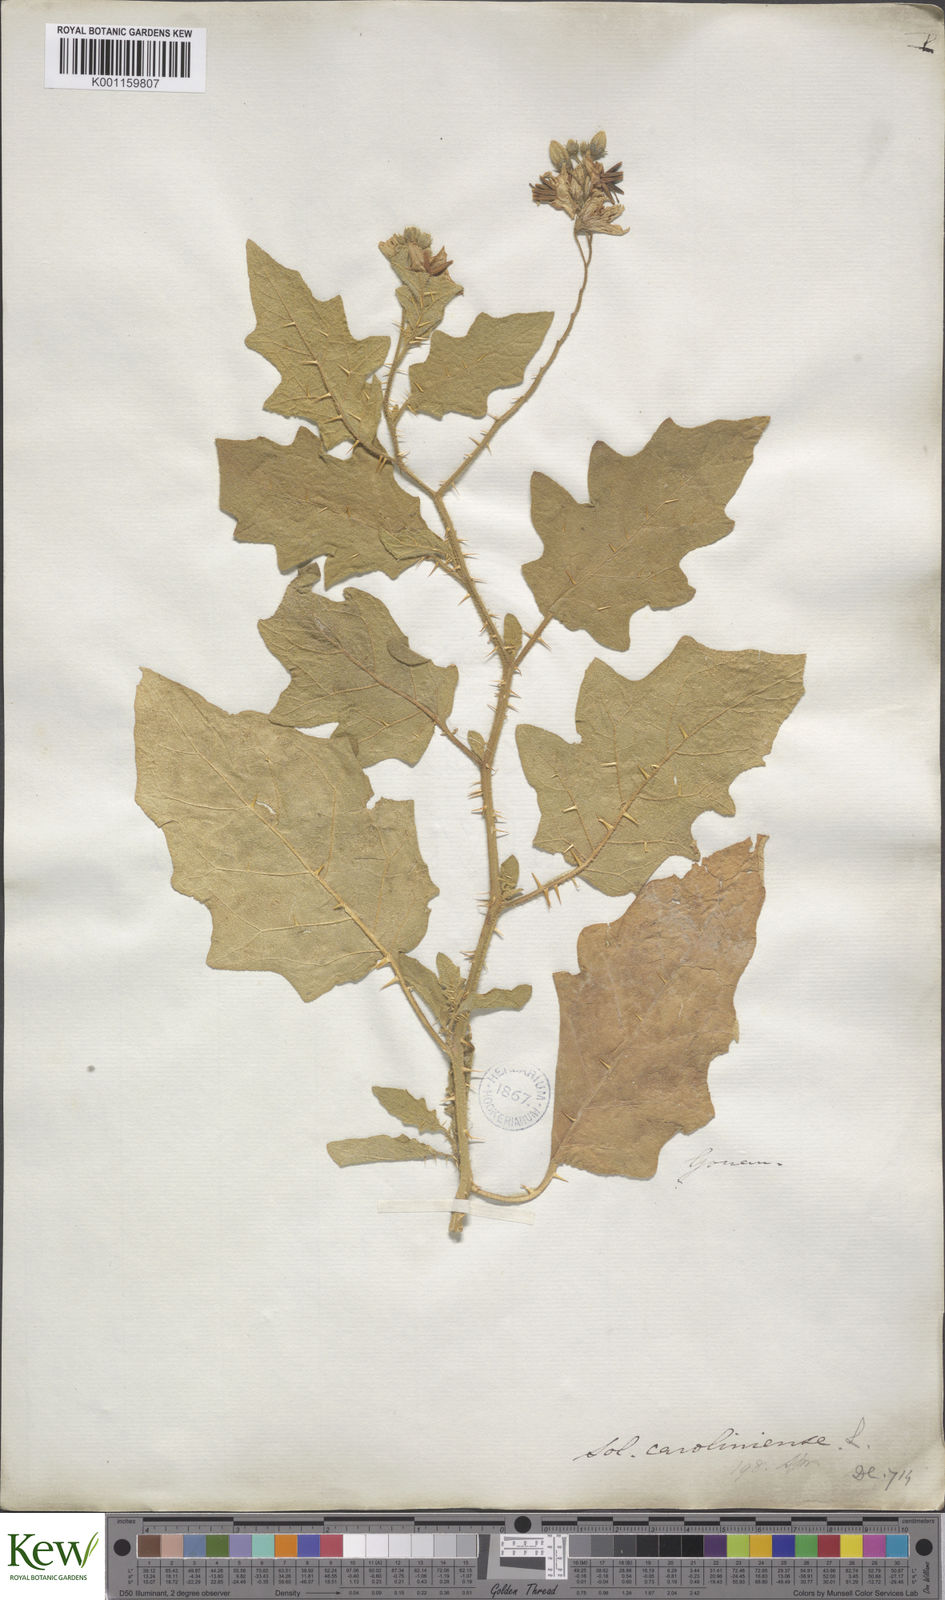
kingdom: Plantae
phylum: Tracheophyta
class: Magnoliopsida
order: Solanales
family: Solanaceae
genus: Solanum
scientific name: Solanum carolinense
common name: Horse-nettle
